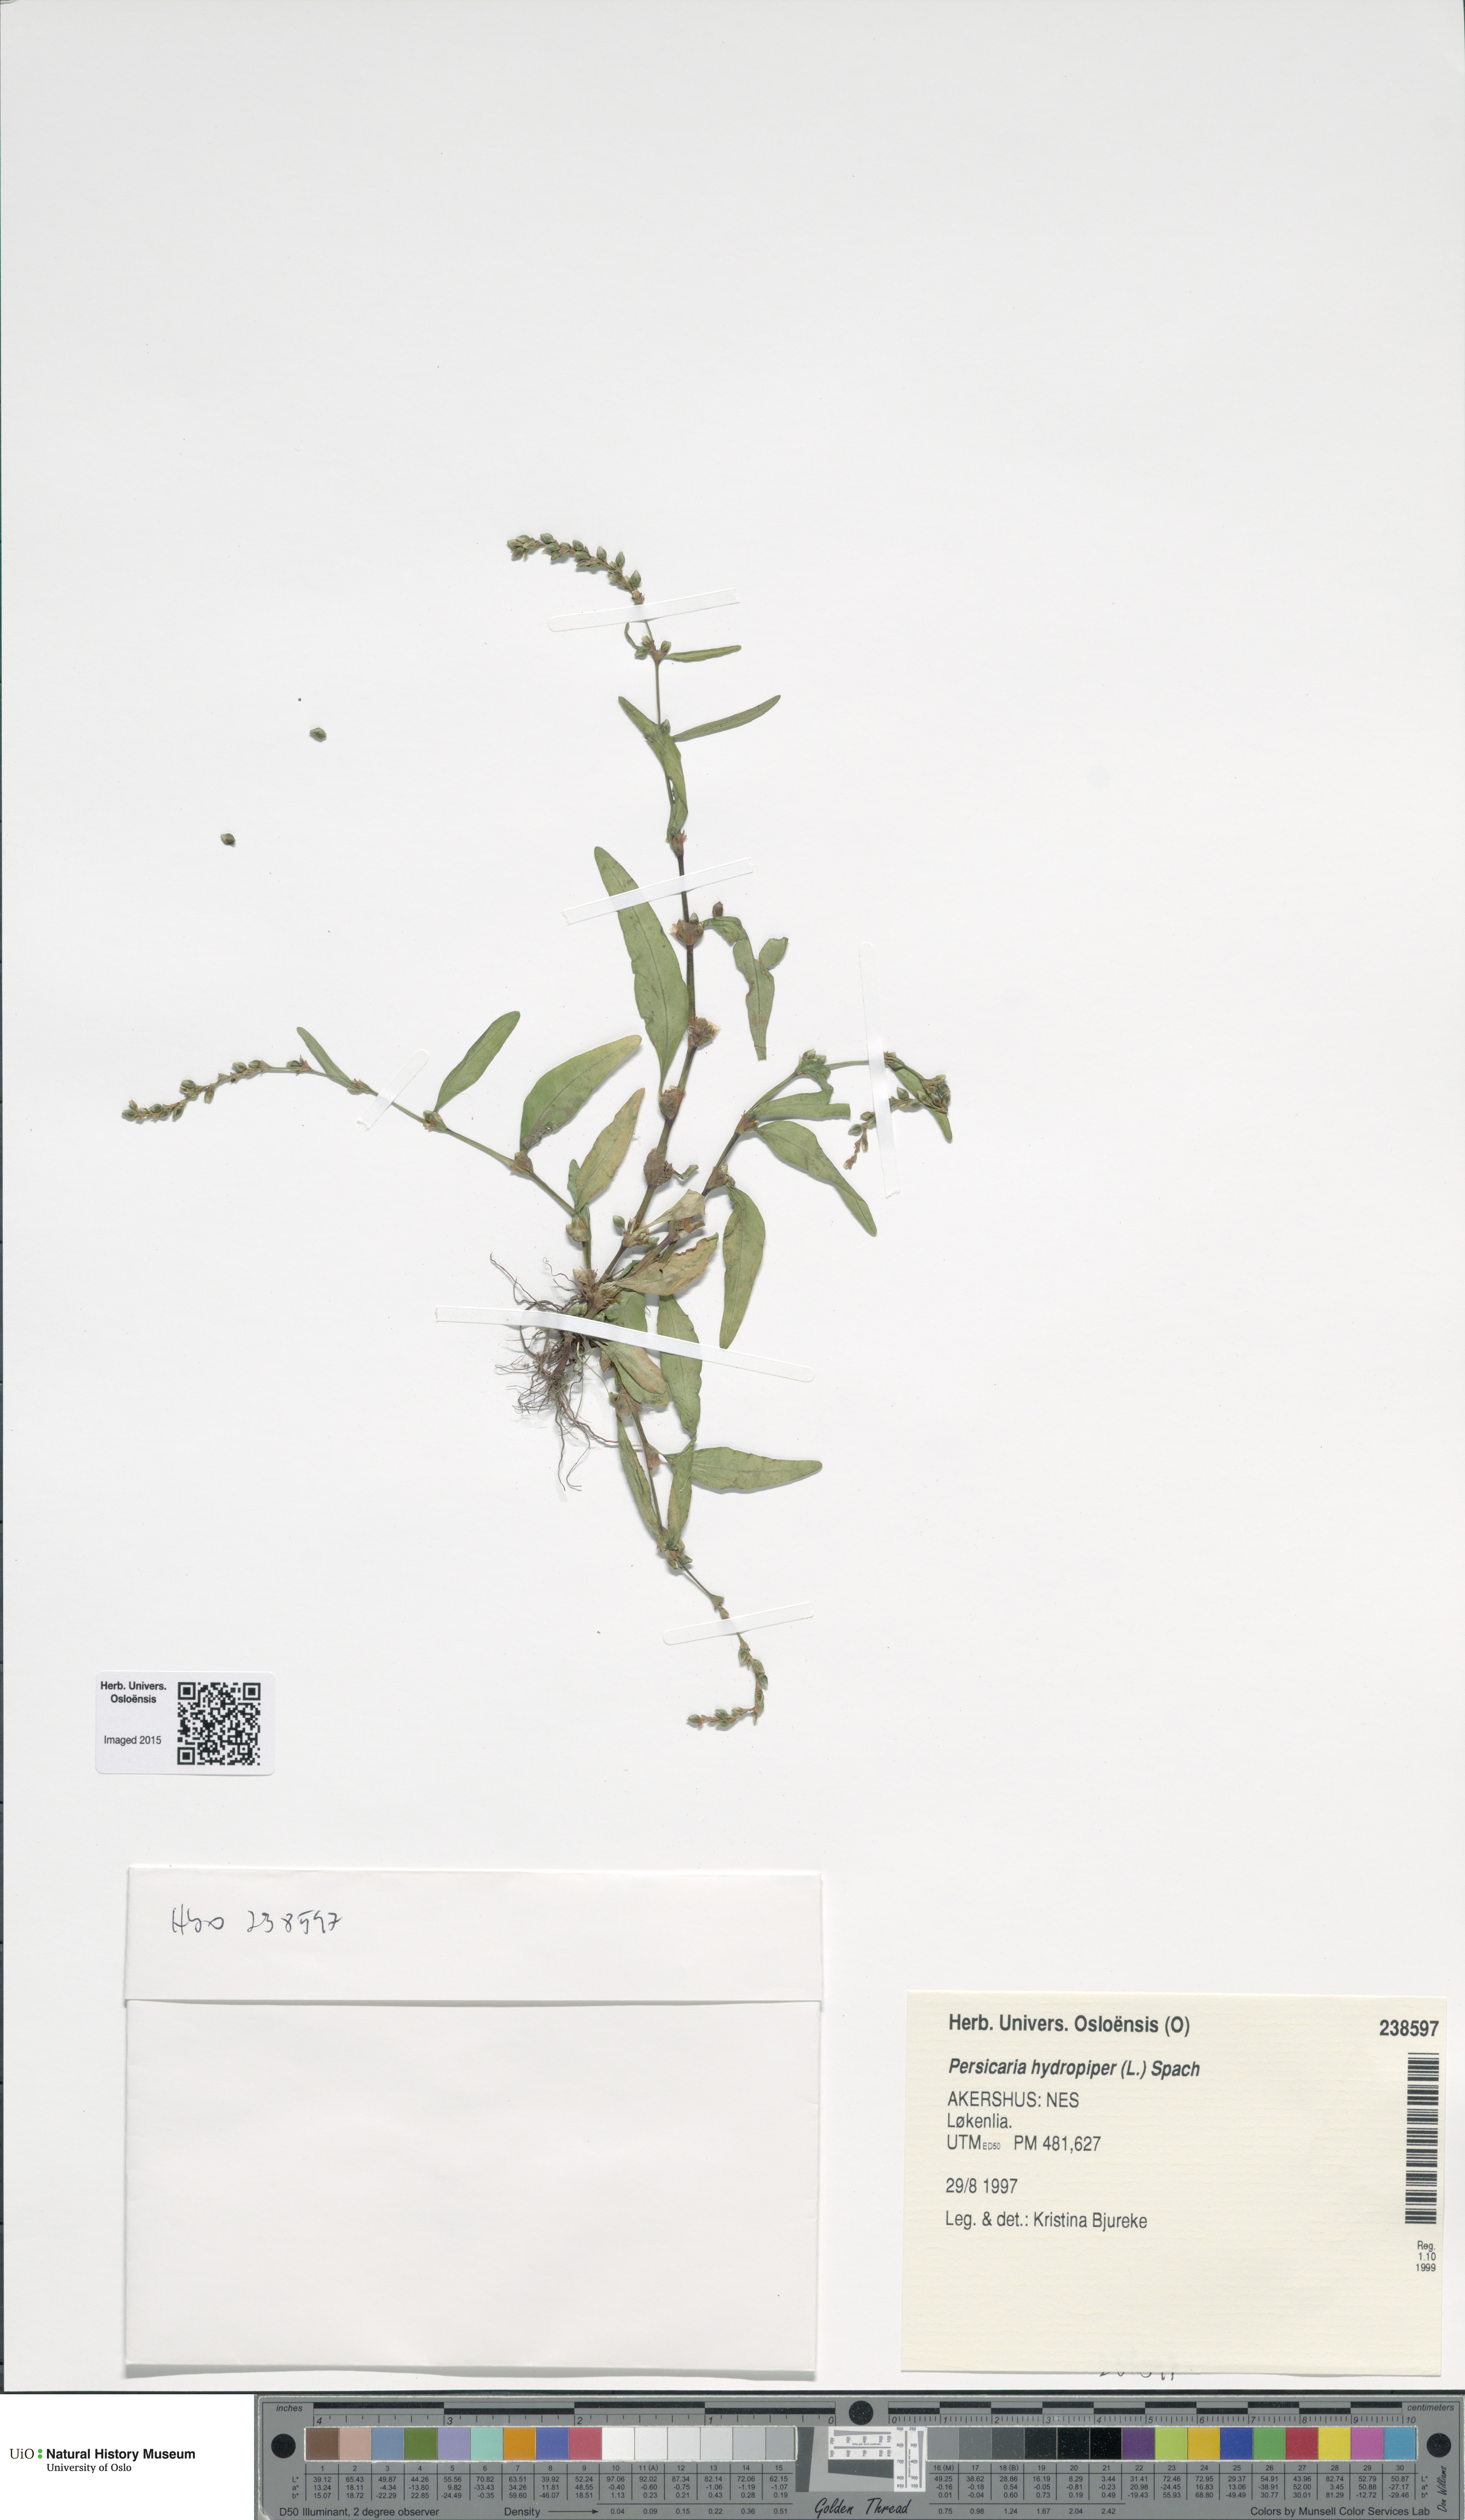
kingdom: Plantae
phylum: Tracheophyta
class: Magnoliopsida
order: Caryophyllales
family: Polygonaceae
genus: Persicaria
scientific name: Persicaria hydropiper
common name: Water-pepper
